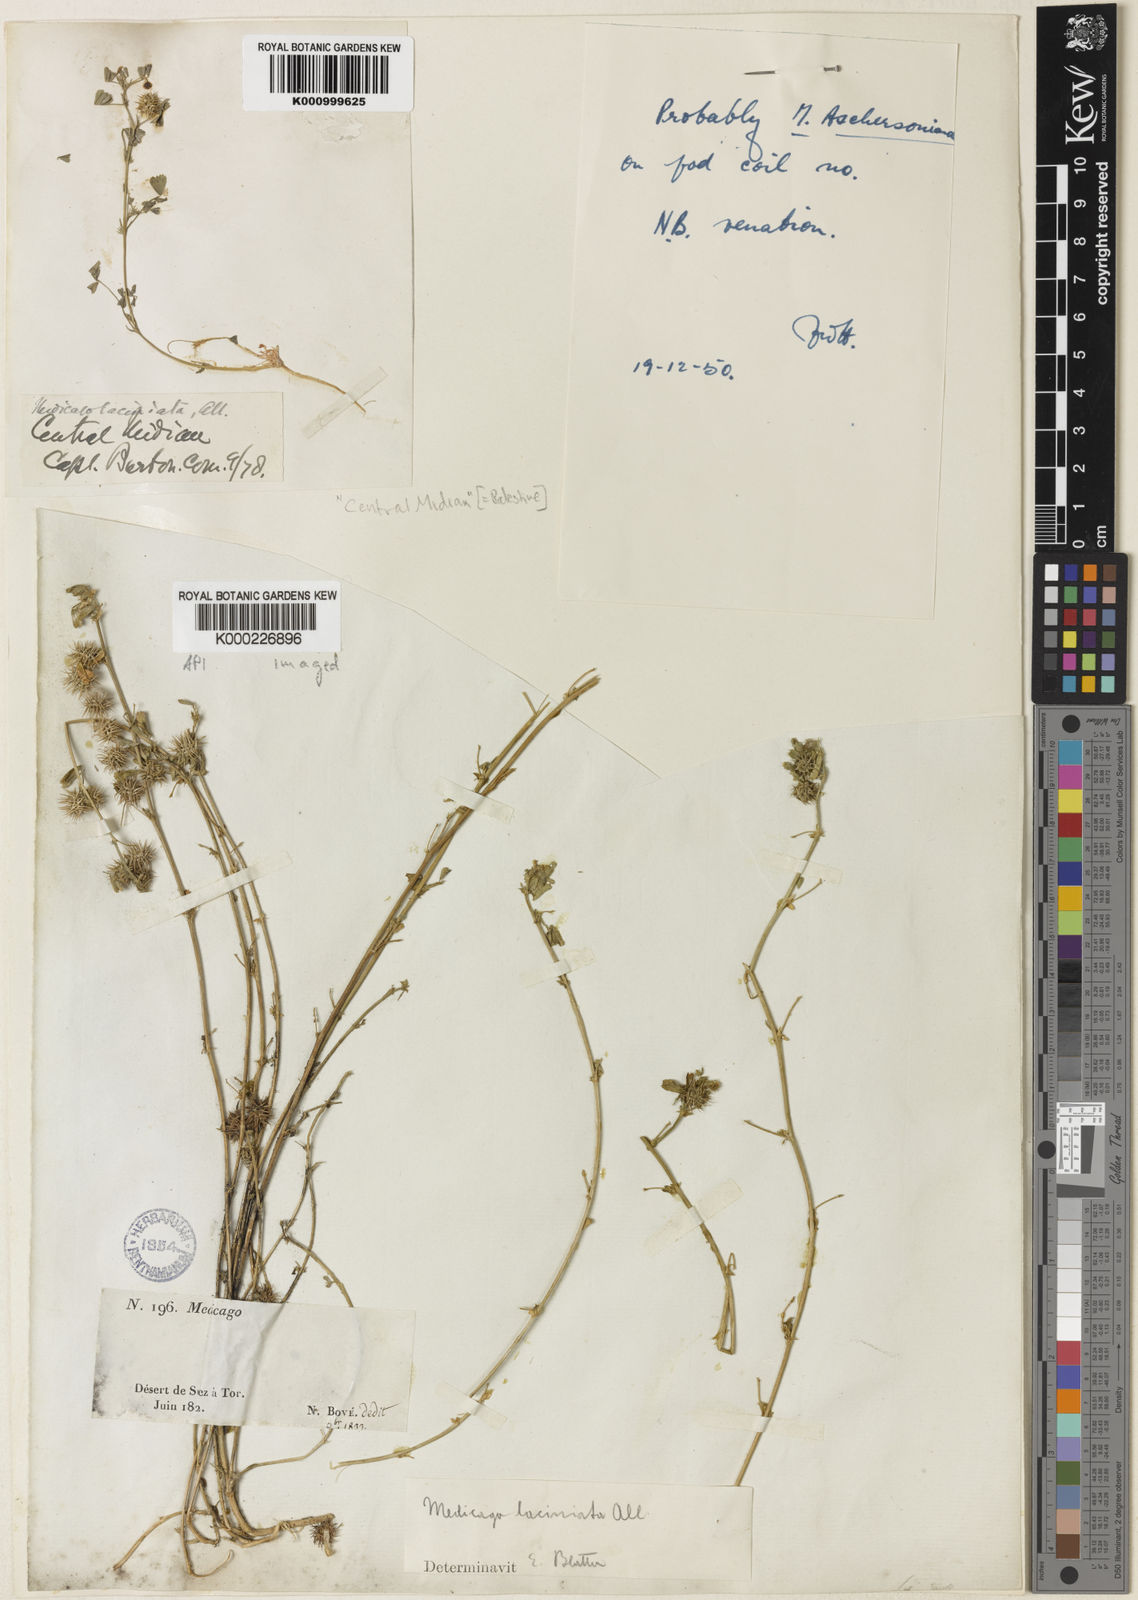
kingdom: Plantae
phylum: Tracheophyta
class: Magnoliopsida
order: Fabales
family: Fabaceae
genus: Medicago
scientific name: Medicago
